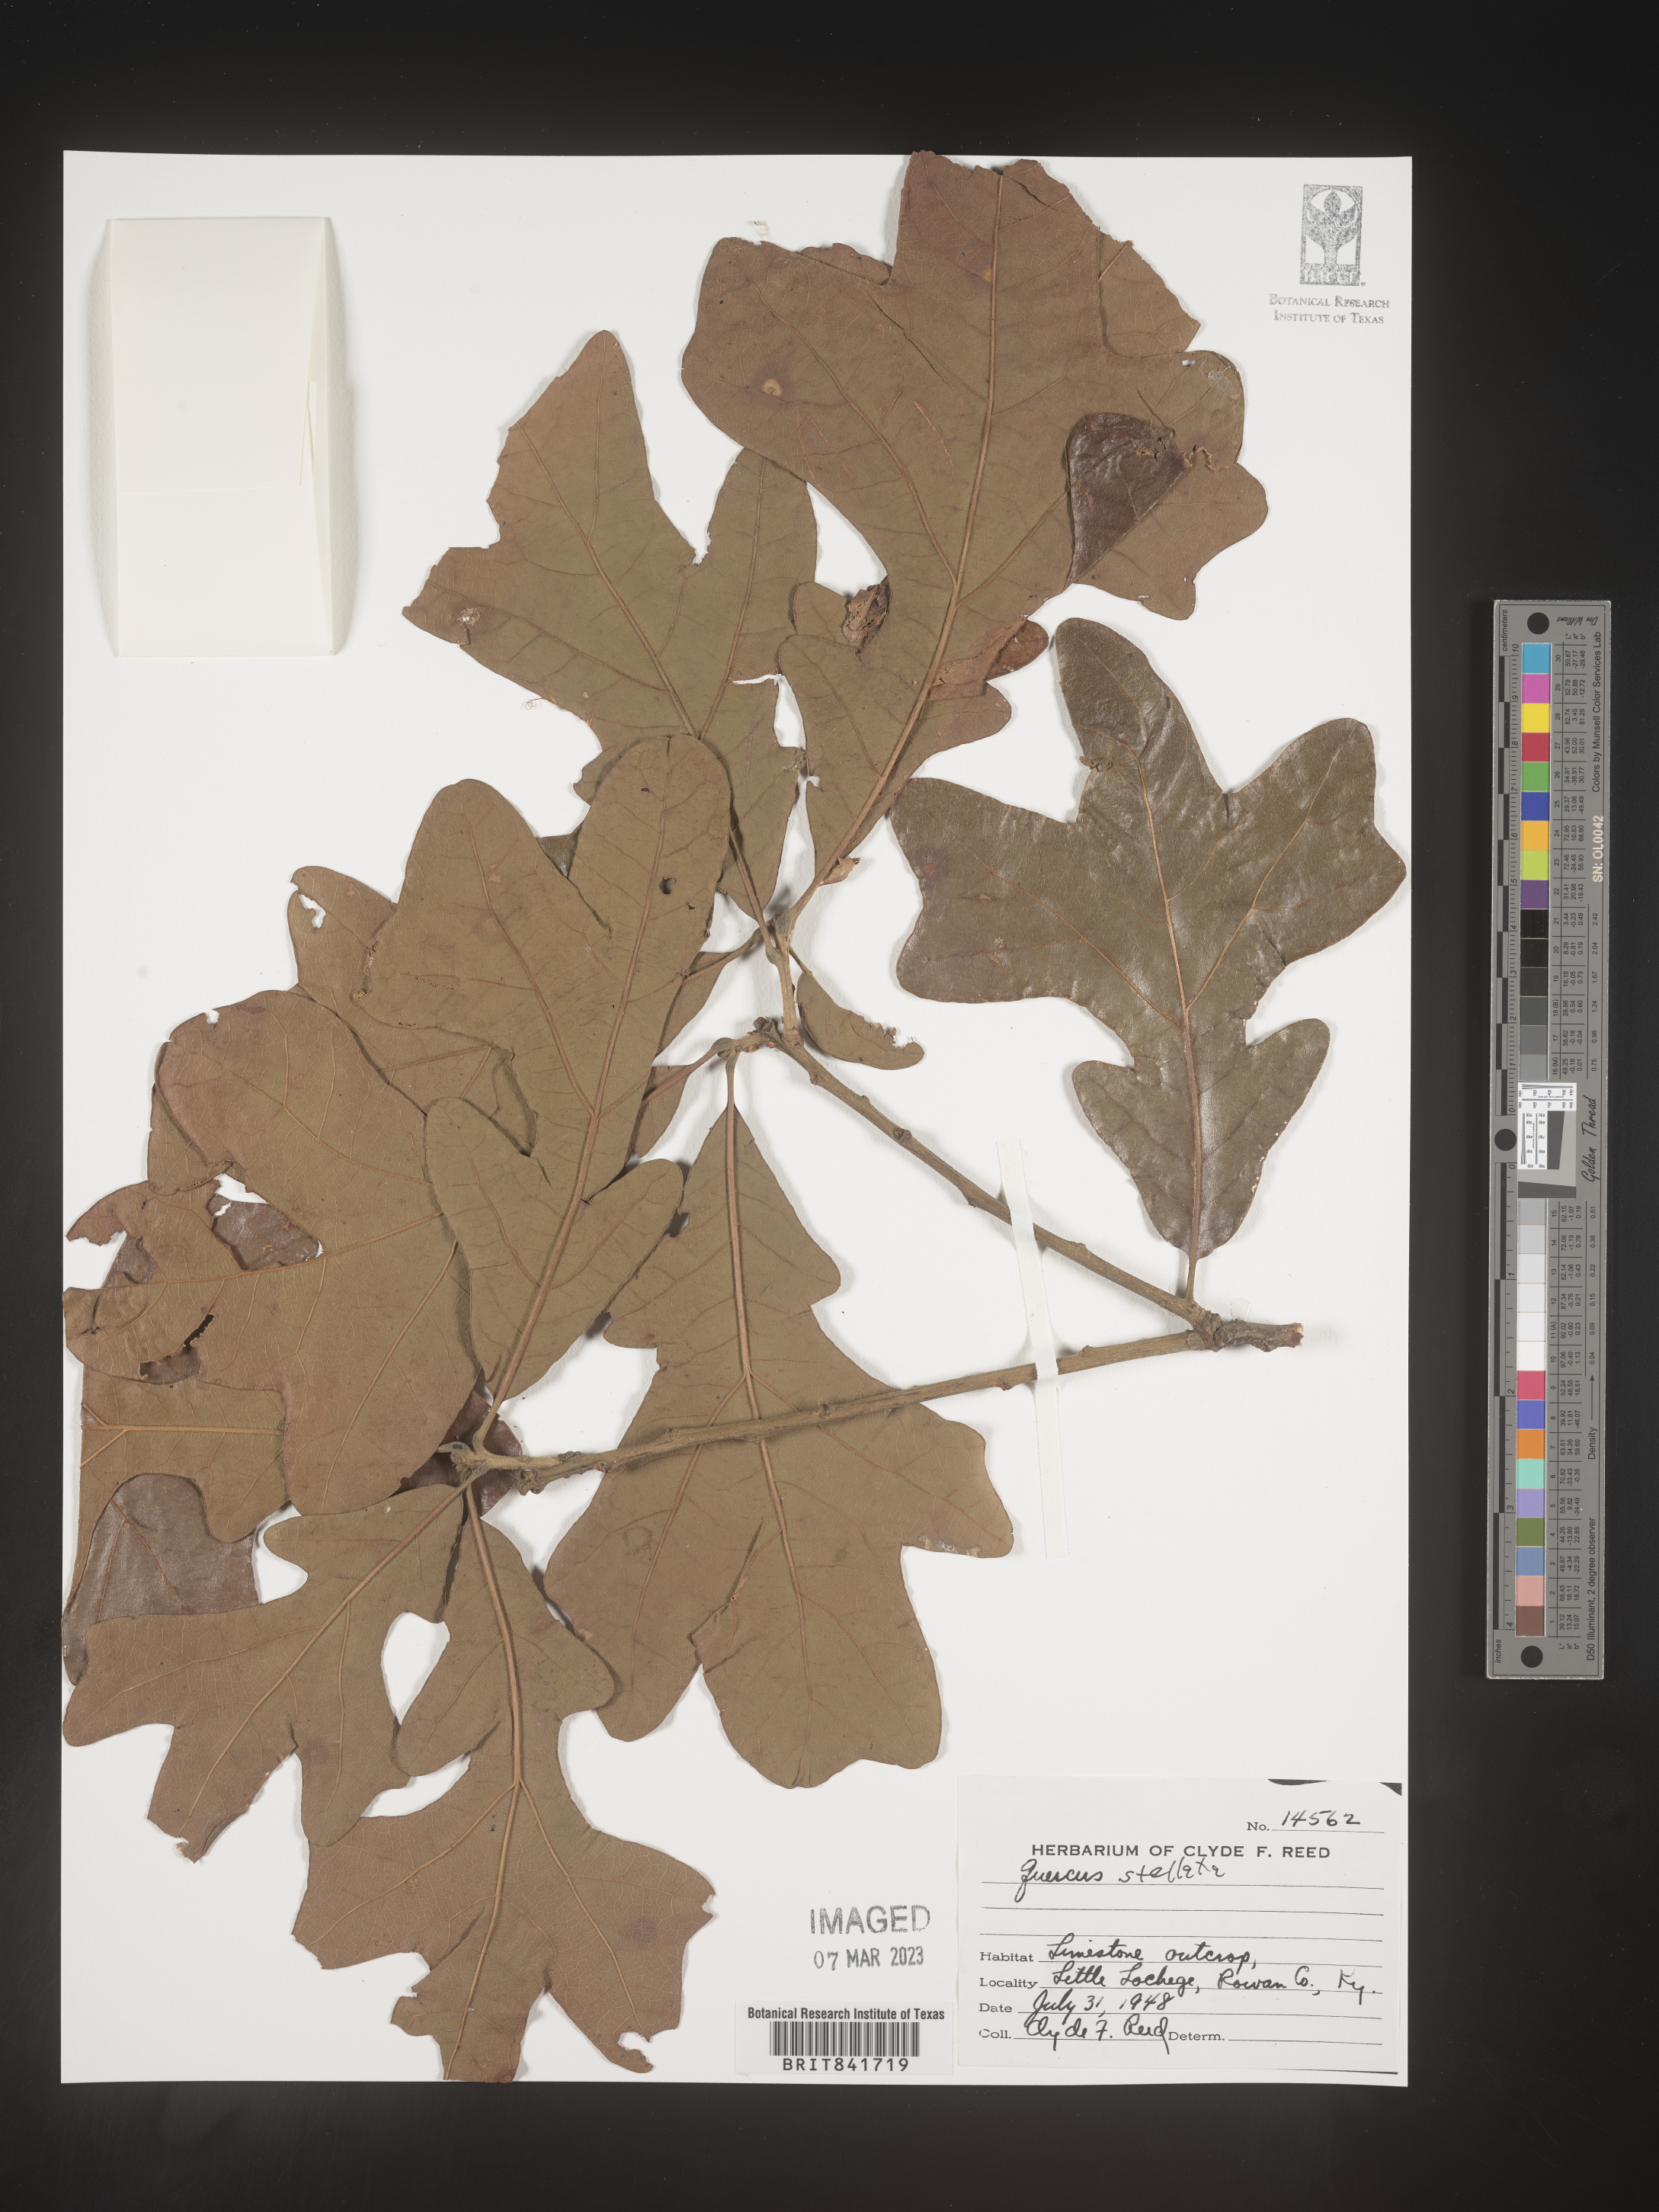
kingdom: Plantae
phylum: Tracheophyta
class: Magnoliopsida
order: Fagales
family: Fagaceae
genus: Quercus
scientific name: Quercus stellata
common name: Post oak
